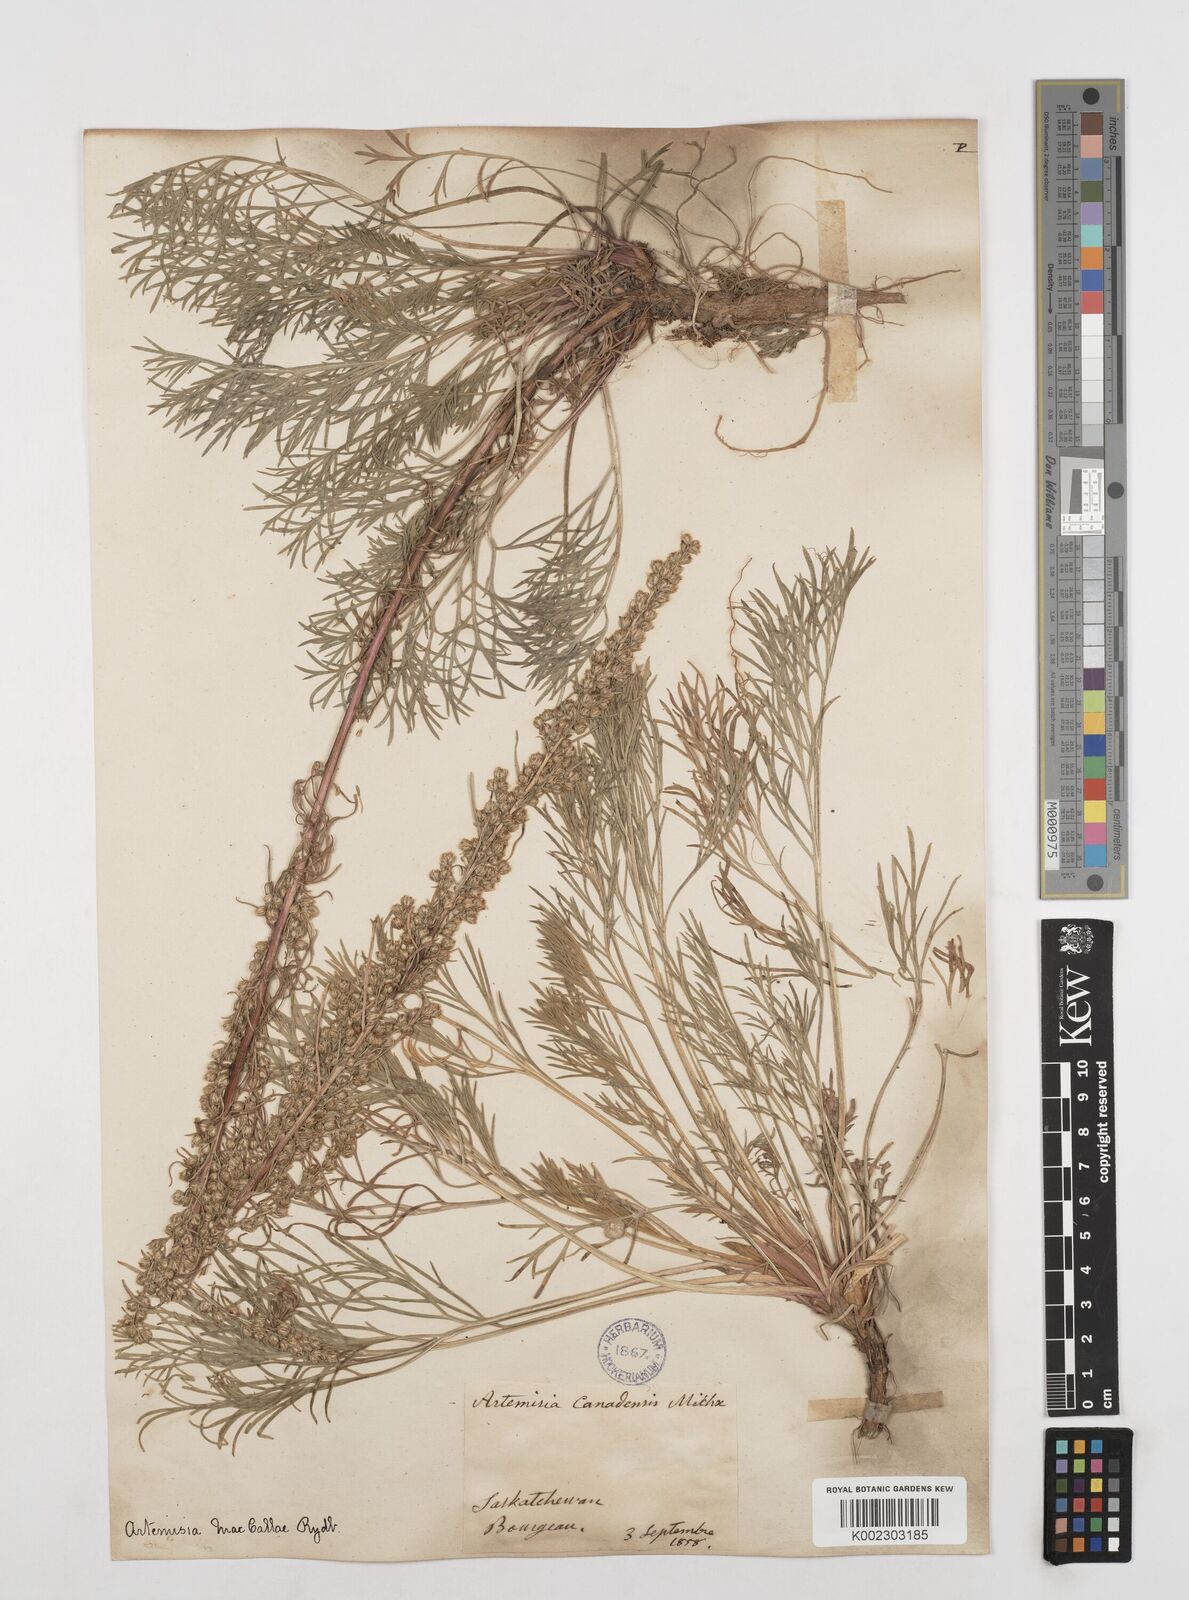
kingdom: Plantae
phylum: Tracheophyta
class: Magnoliopsida
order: Asterales
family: Asteraceae
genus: Artemisia
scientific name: Artemisia campestris
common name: Field wormwood
